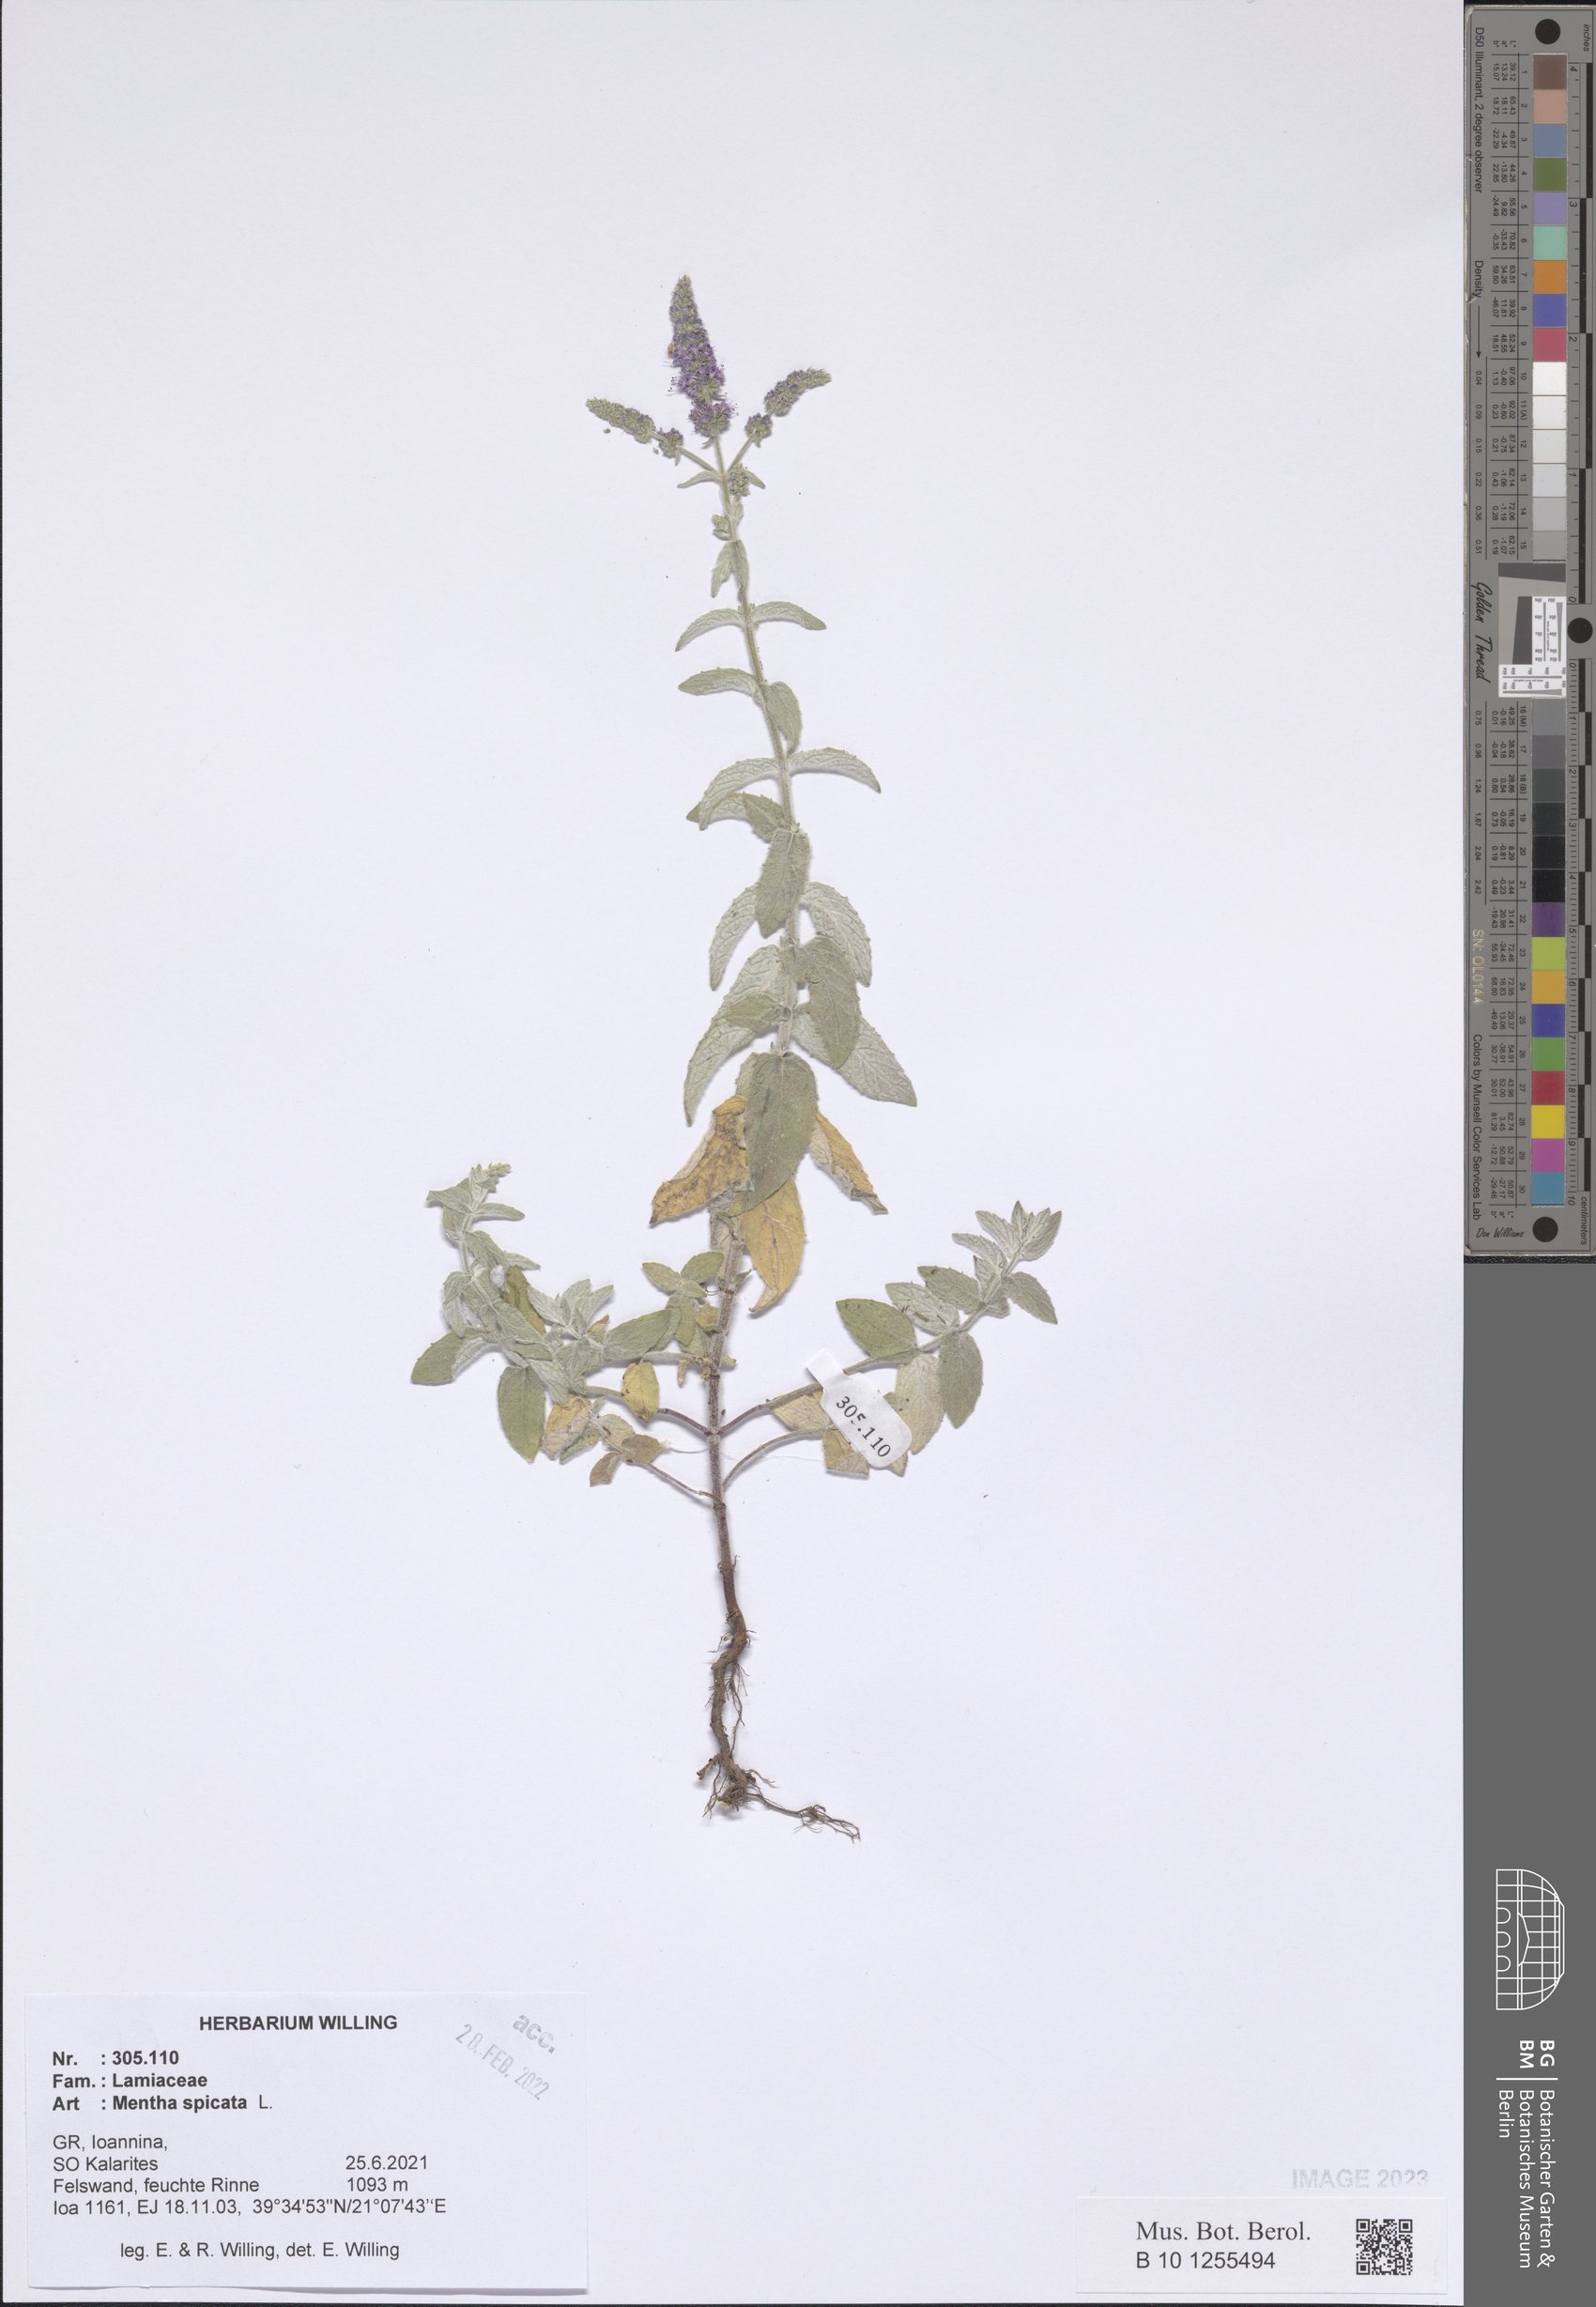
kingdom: Plantae
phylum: Tracheophyta
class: Magnoliopsida
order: Lamiales
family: Lamiaceae
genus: Mentha
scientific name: Mentha spicata
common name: Spearmint
